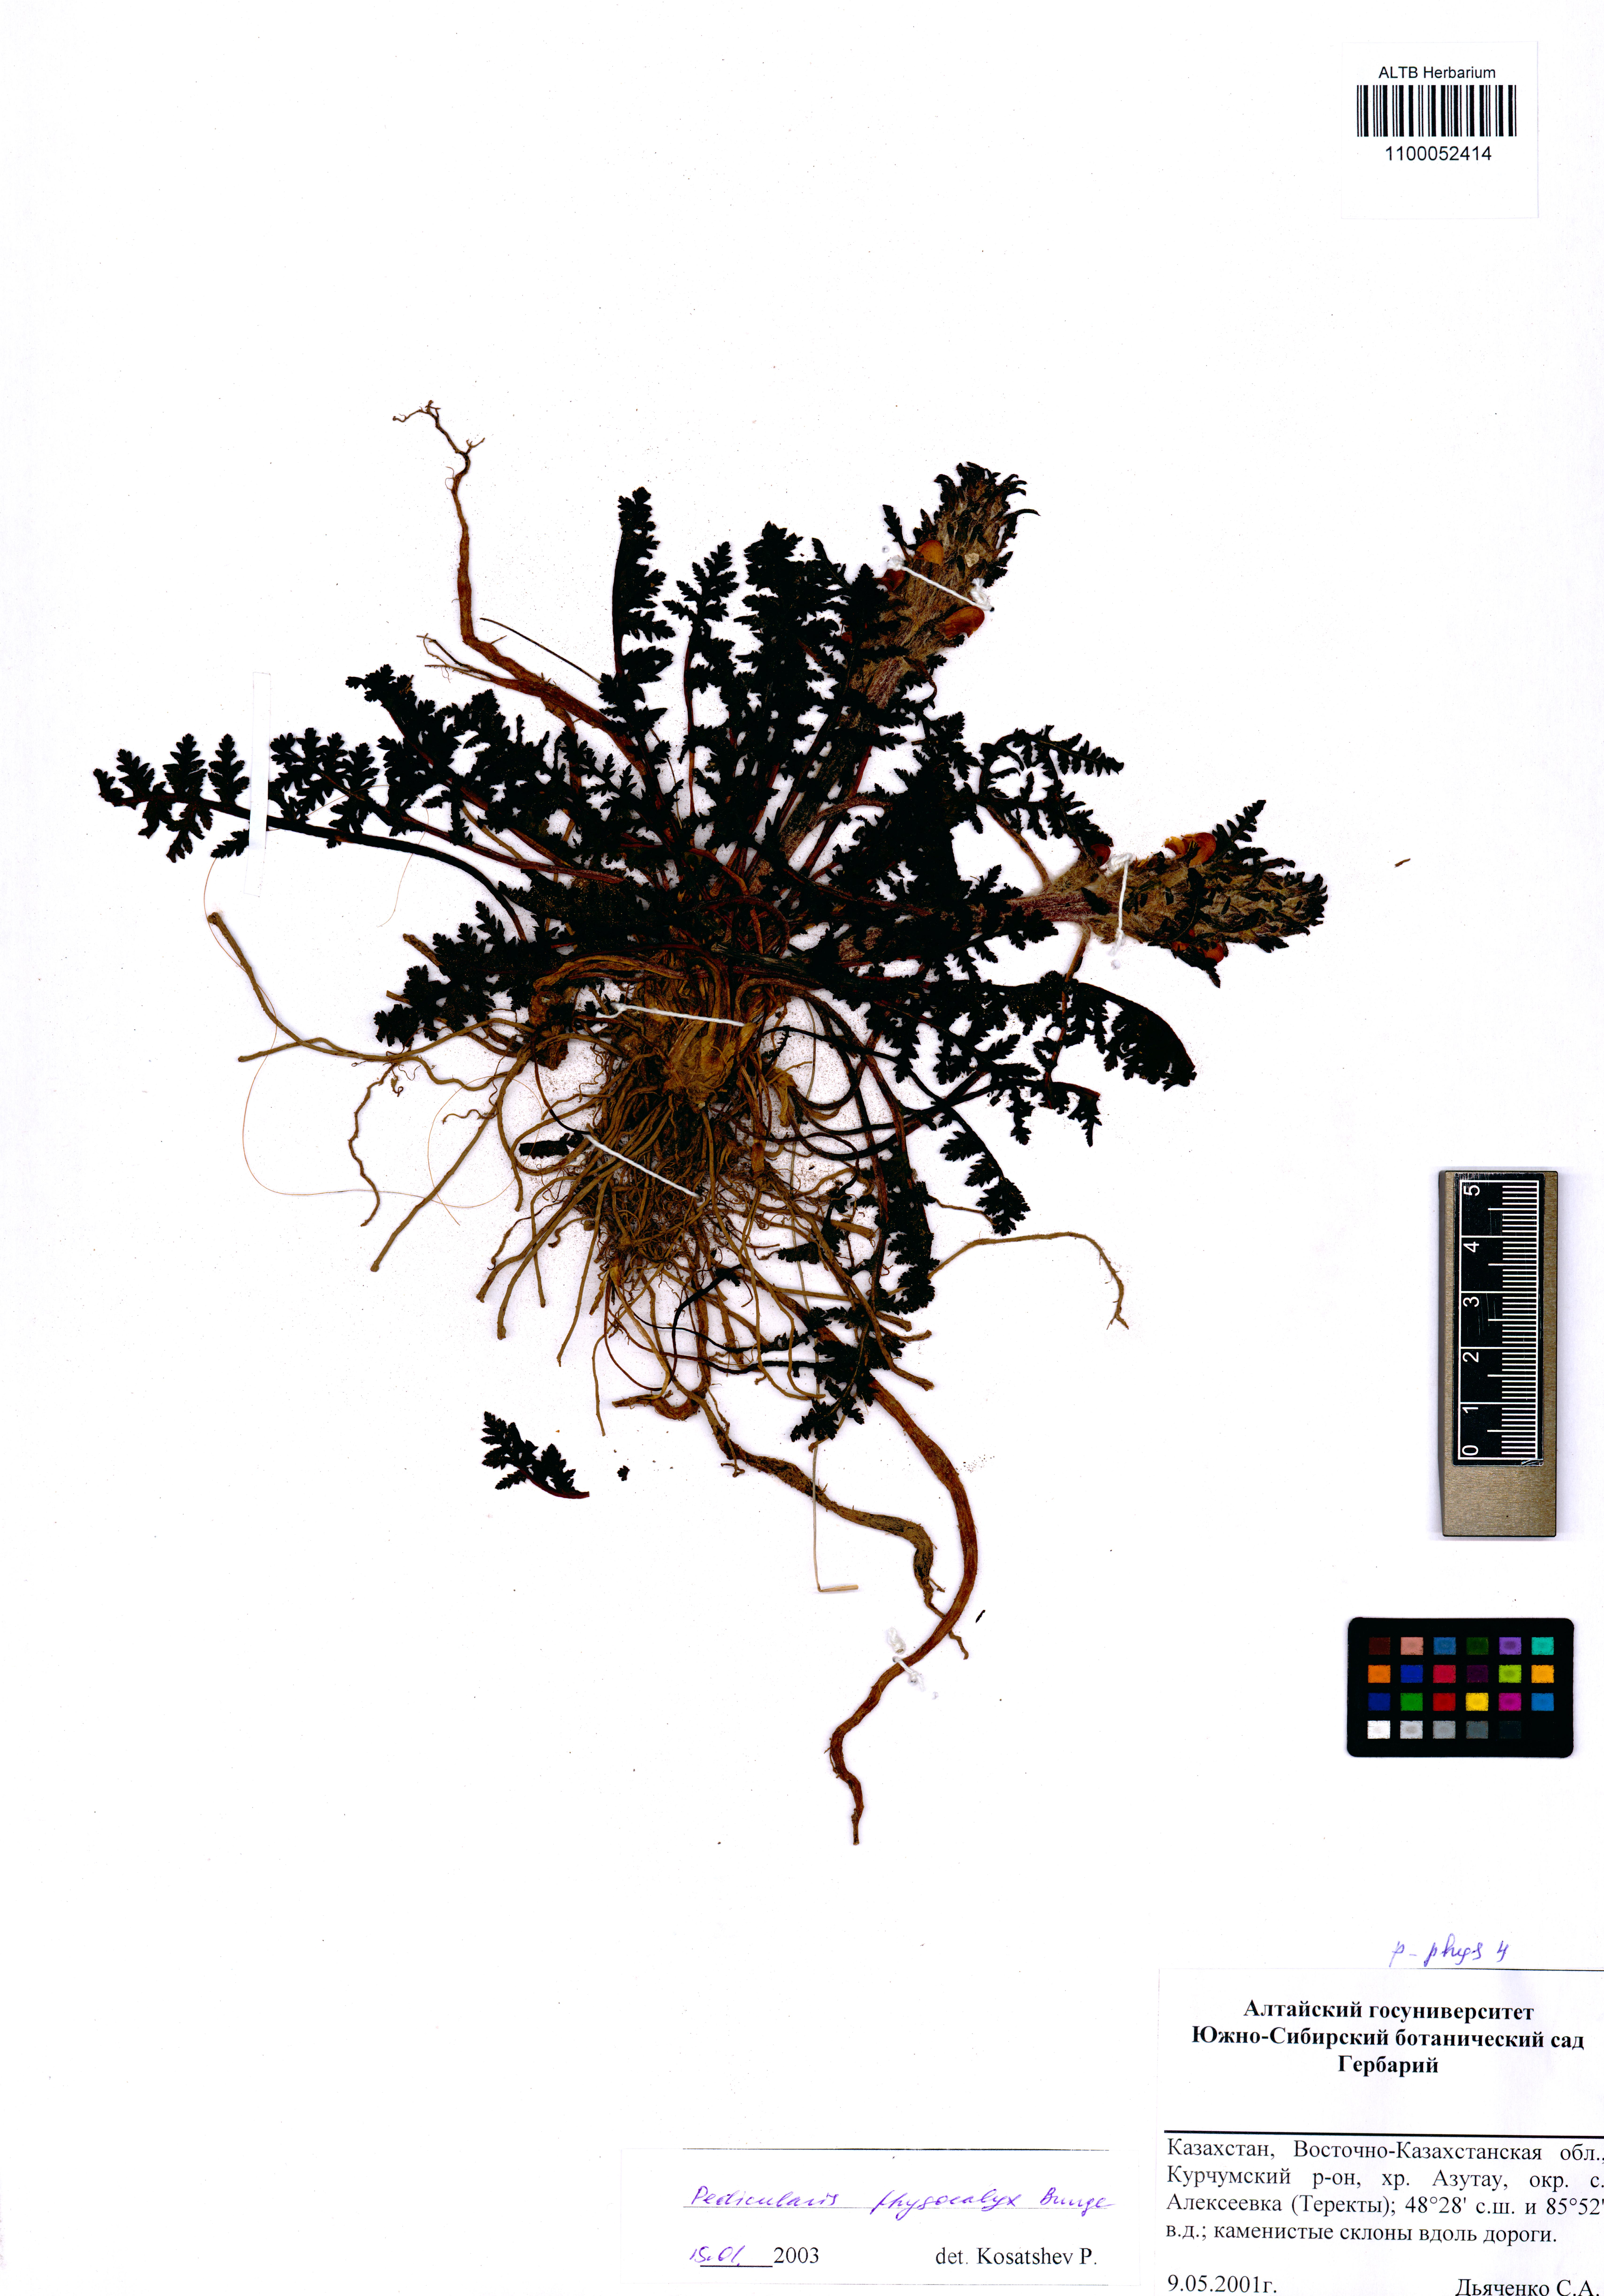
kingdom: Plantae
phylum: Tracheophyta
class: Magnoliopsida
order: Lamiales
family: Orobanchaceae
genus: Pedicularis
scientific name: Pedicularis physocalyx
